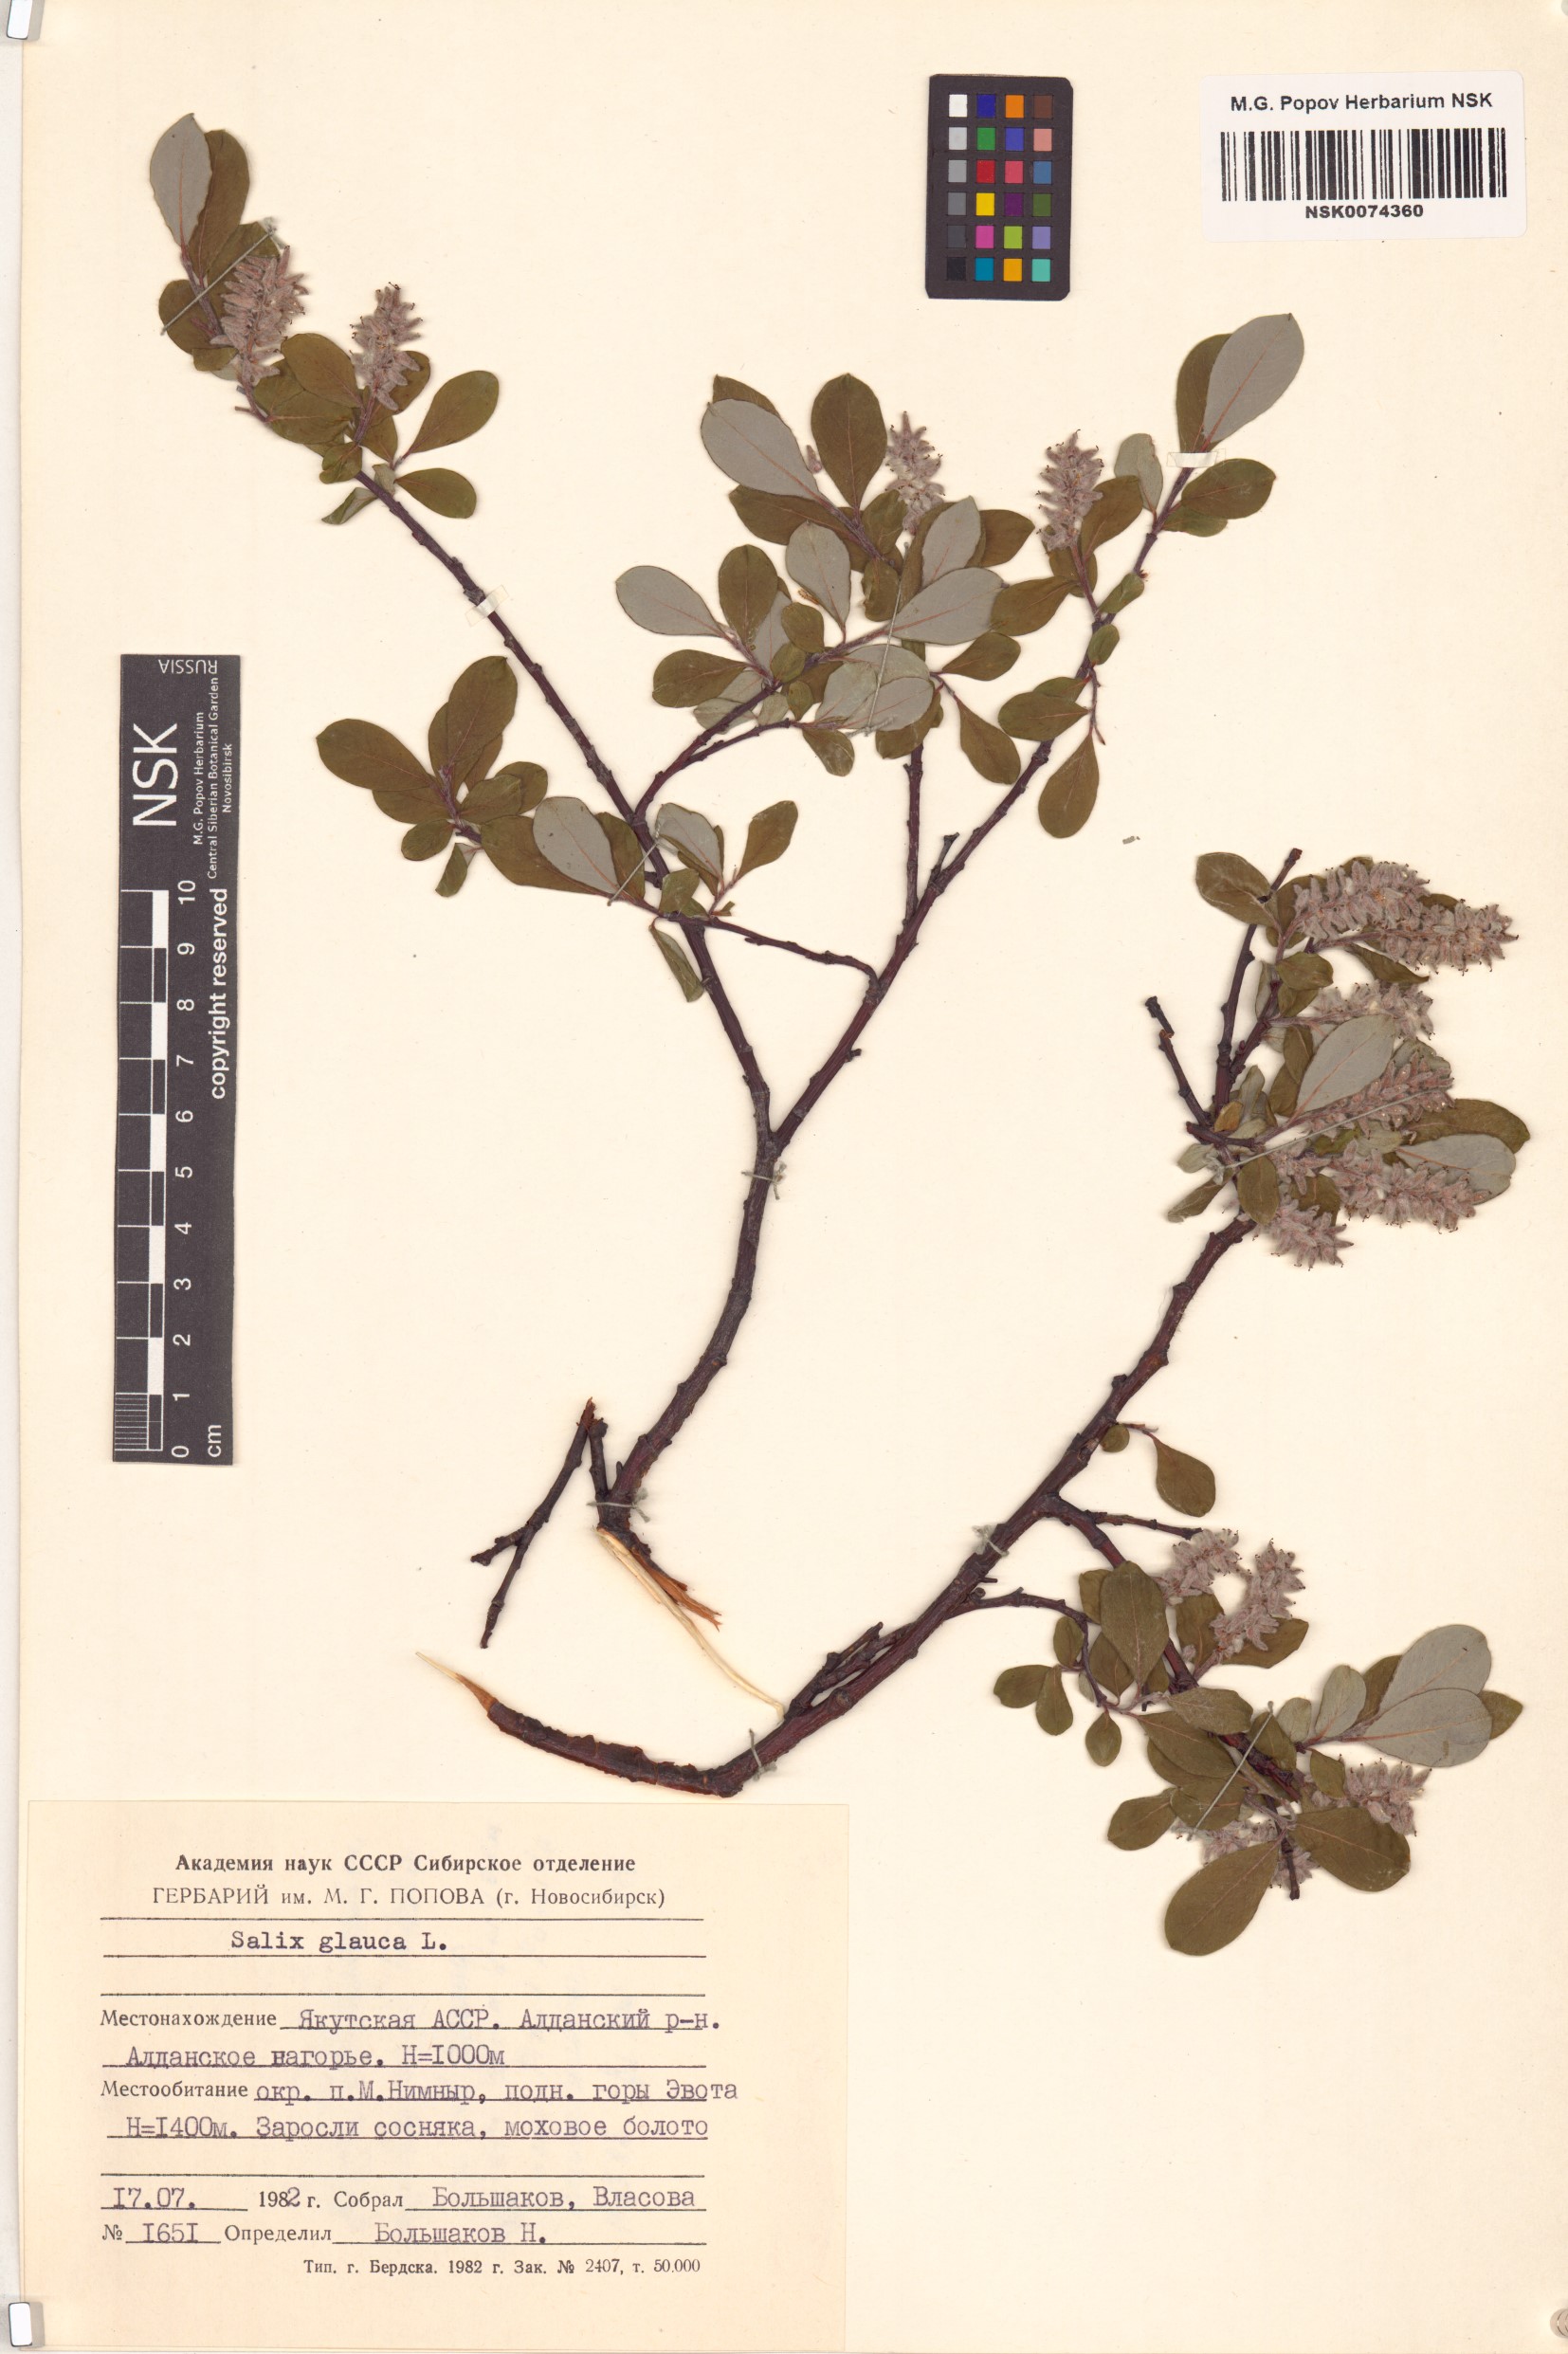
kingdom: Plantae
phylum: Tracheophyta
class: Magnoliopsida
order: Malpighiales
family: Salicaceae
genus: Salix
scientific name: Salix glauca
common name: Glaucous willow
